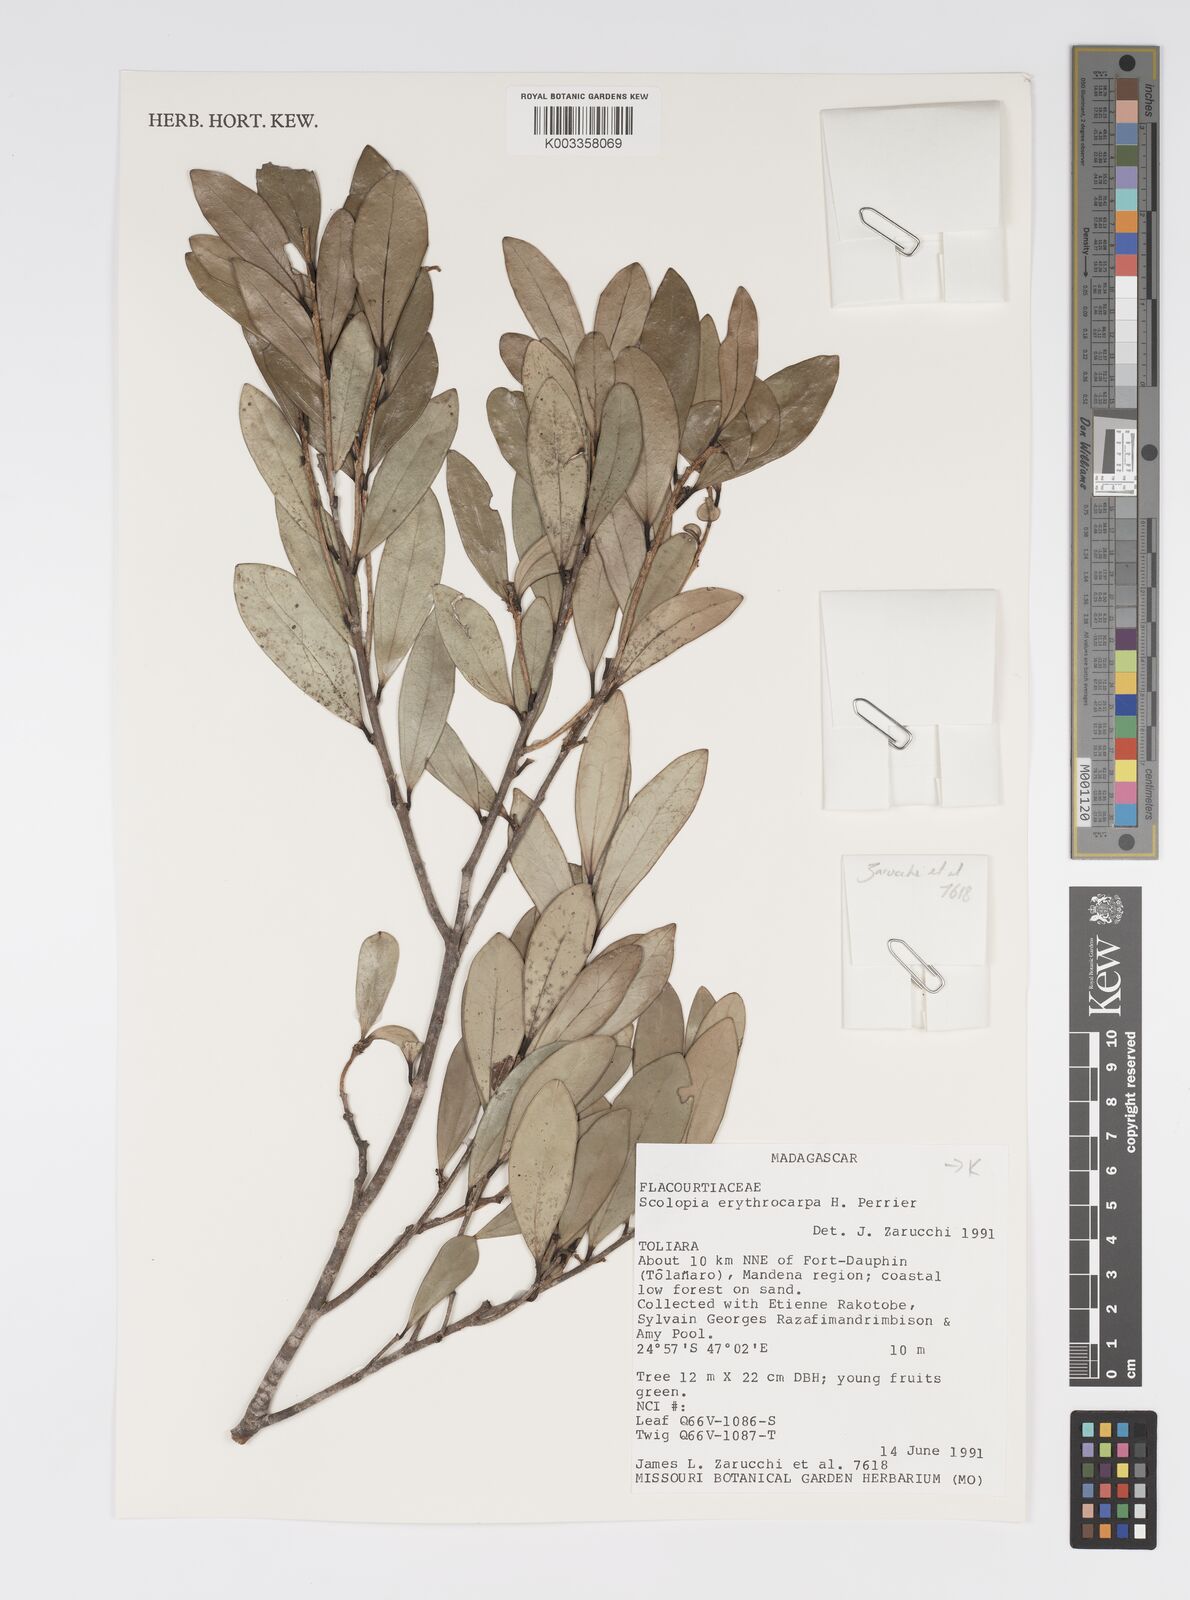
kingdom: Plantae
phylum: Tracheophyta
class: Magnoliopsida
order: Malpighiales
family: Salicaceae
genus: Scolopia
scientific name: Scolopia erythrocarpa
